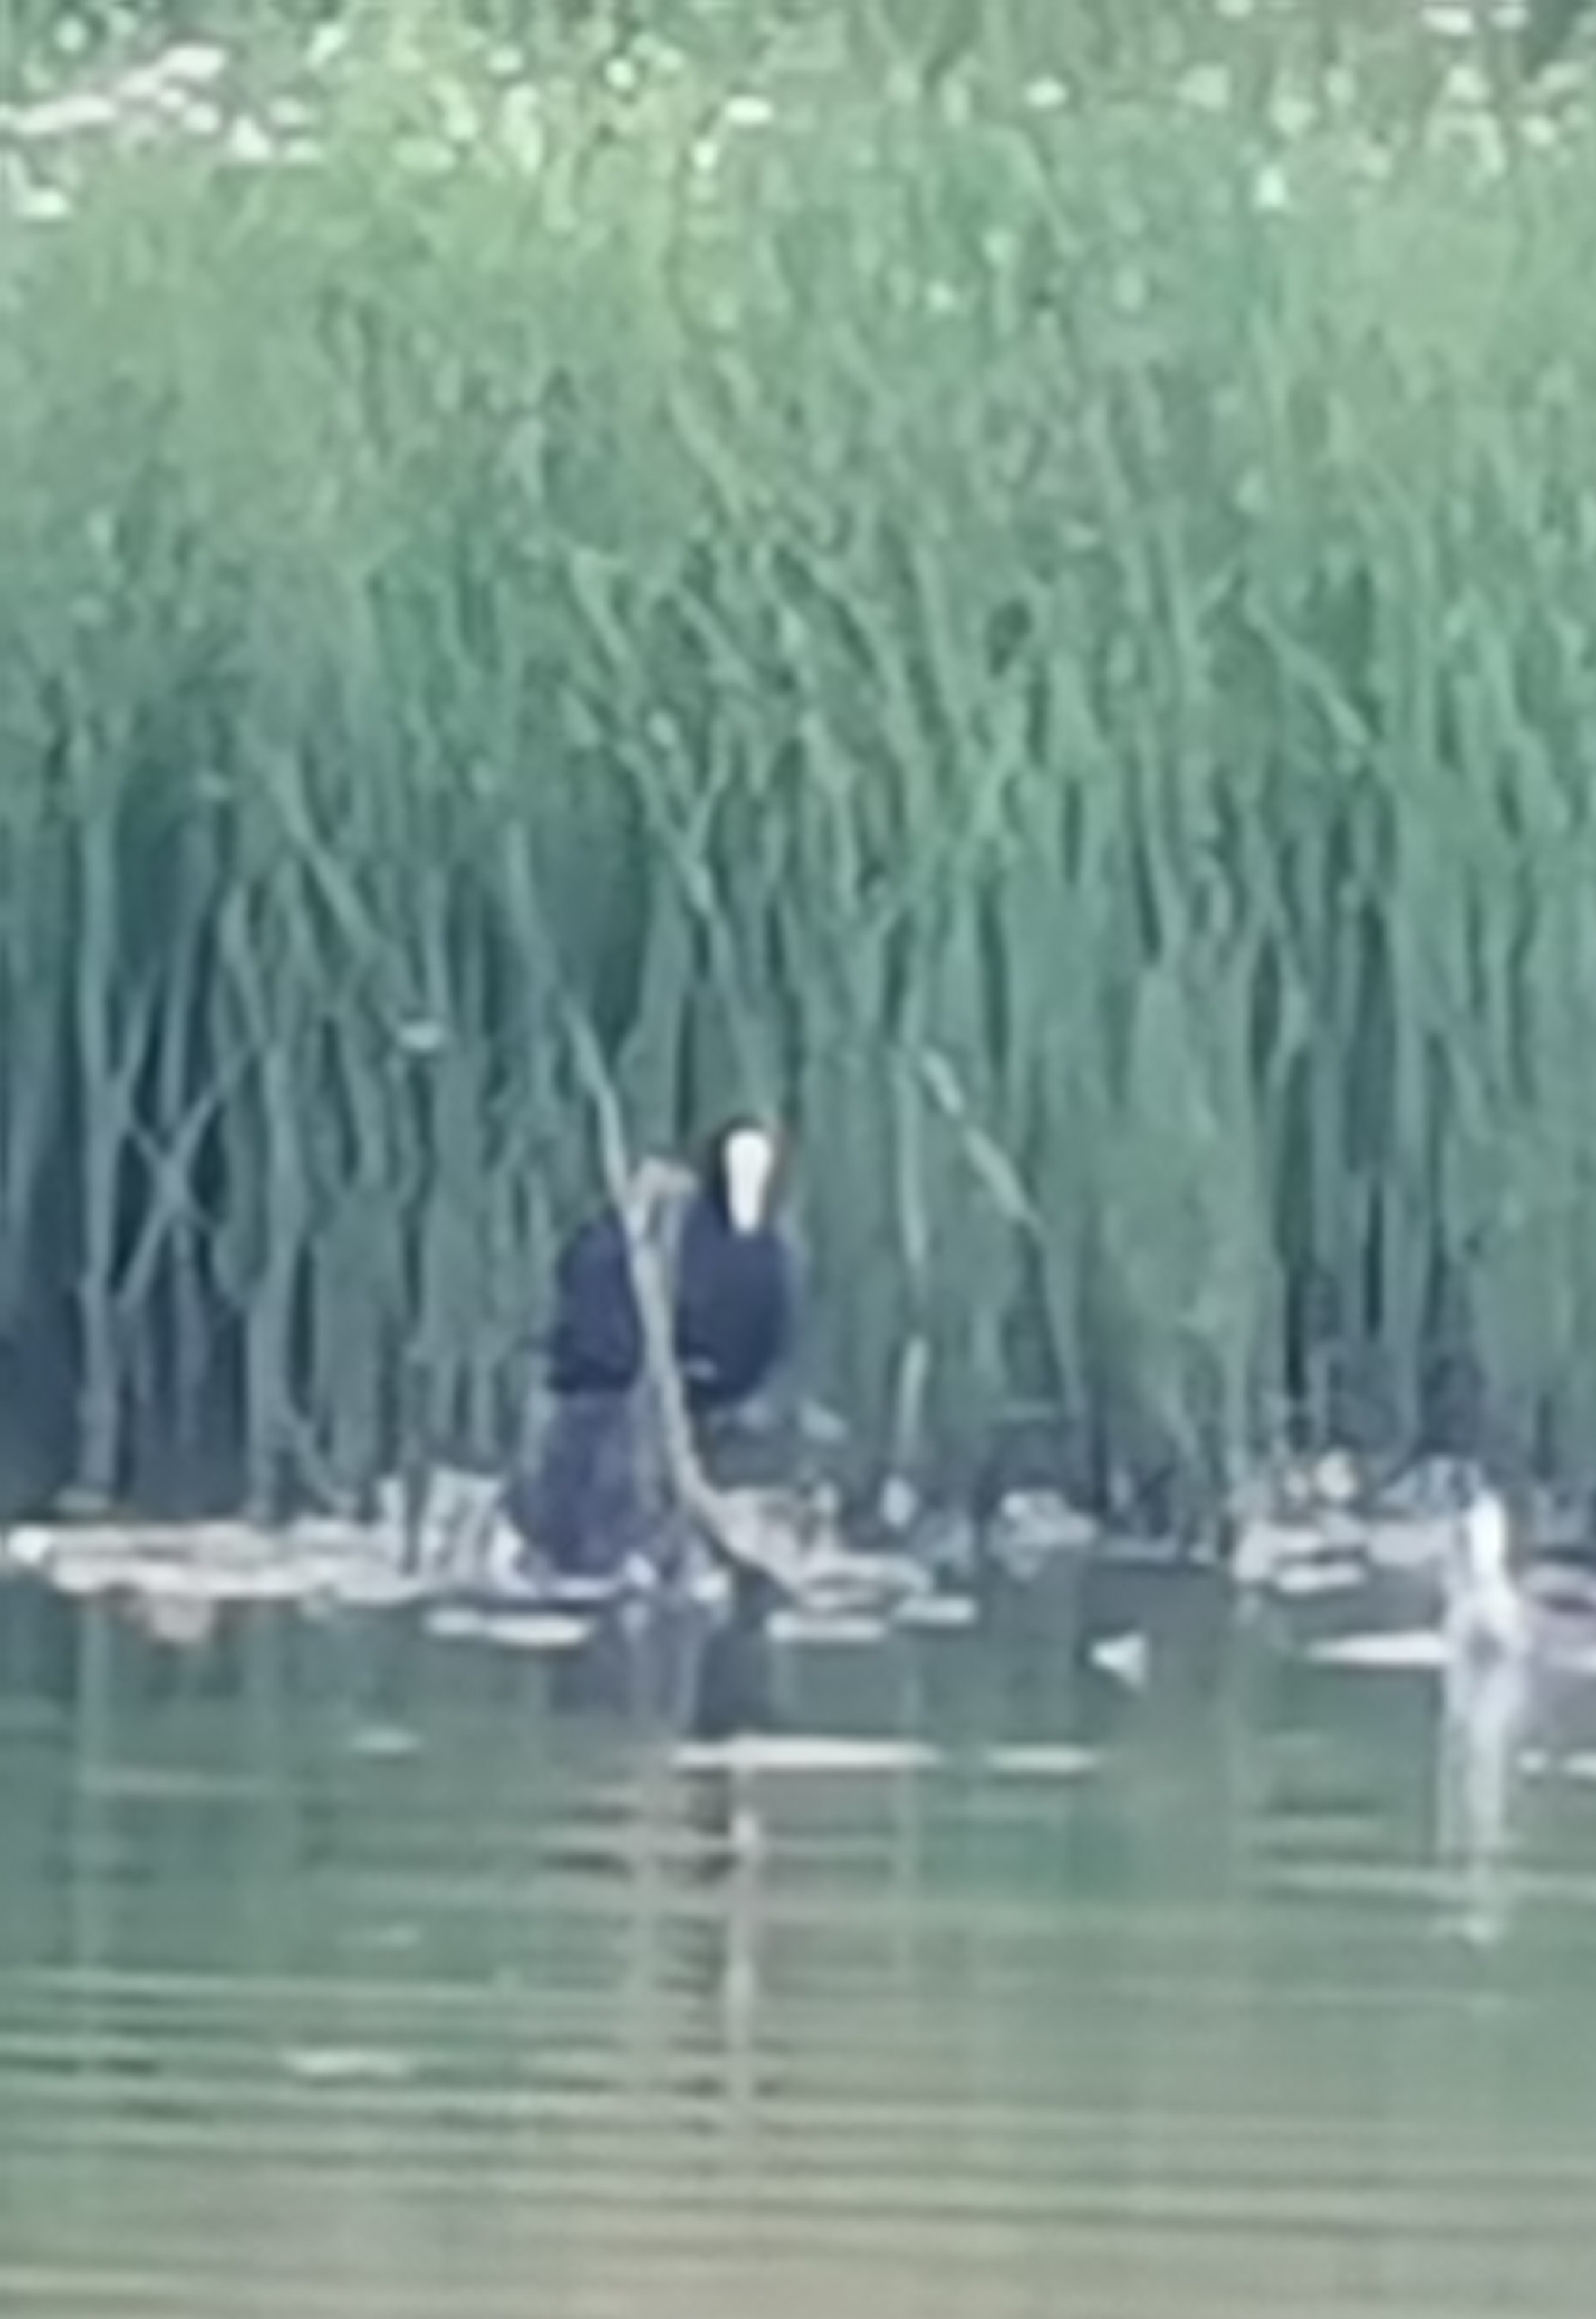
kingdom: Animalia
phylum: Chordata
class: Aves
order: Gruiformes
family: Rallidae
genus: Fulica
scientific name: Fulica atra
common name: Blishøne
